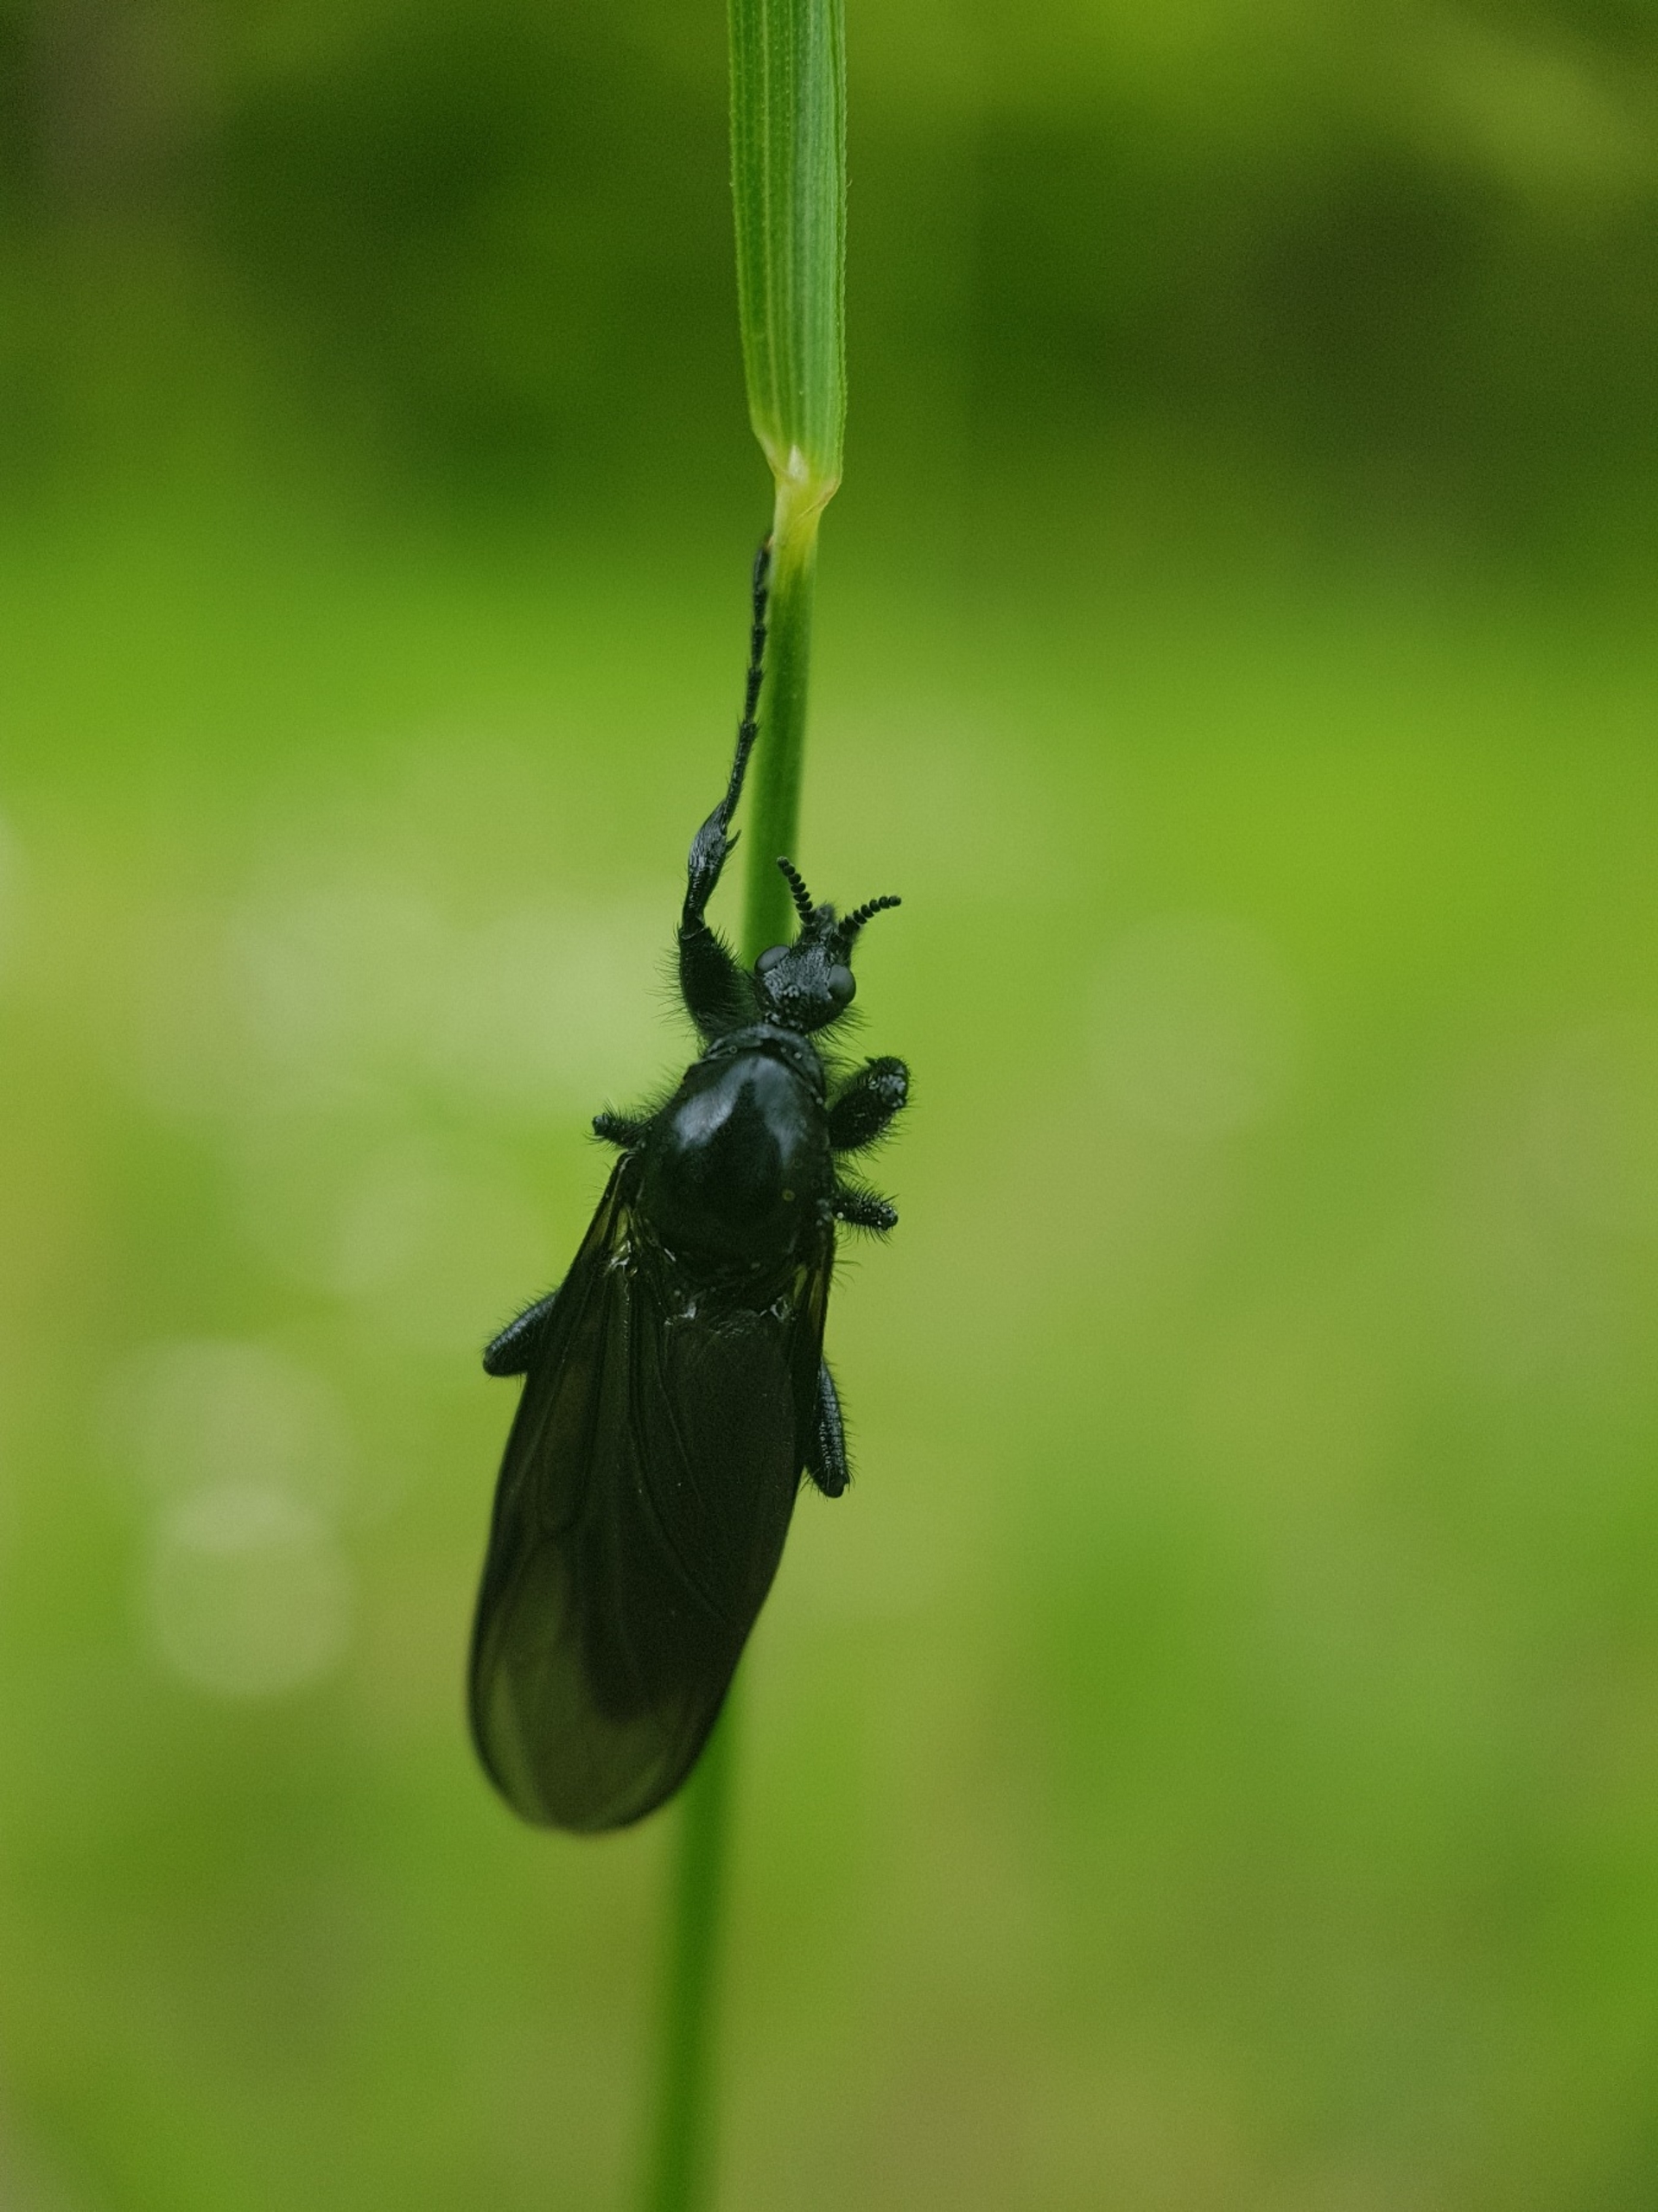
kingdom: Animalia
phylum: Arthropoda
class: Insecta
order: Diptera
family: Bibionidae
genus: Bibio
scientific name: Bibio marci
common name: Skovhårmyg
